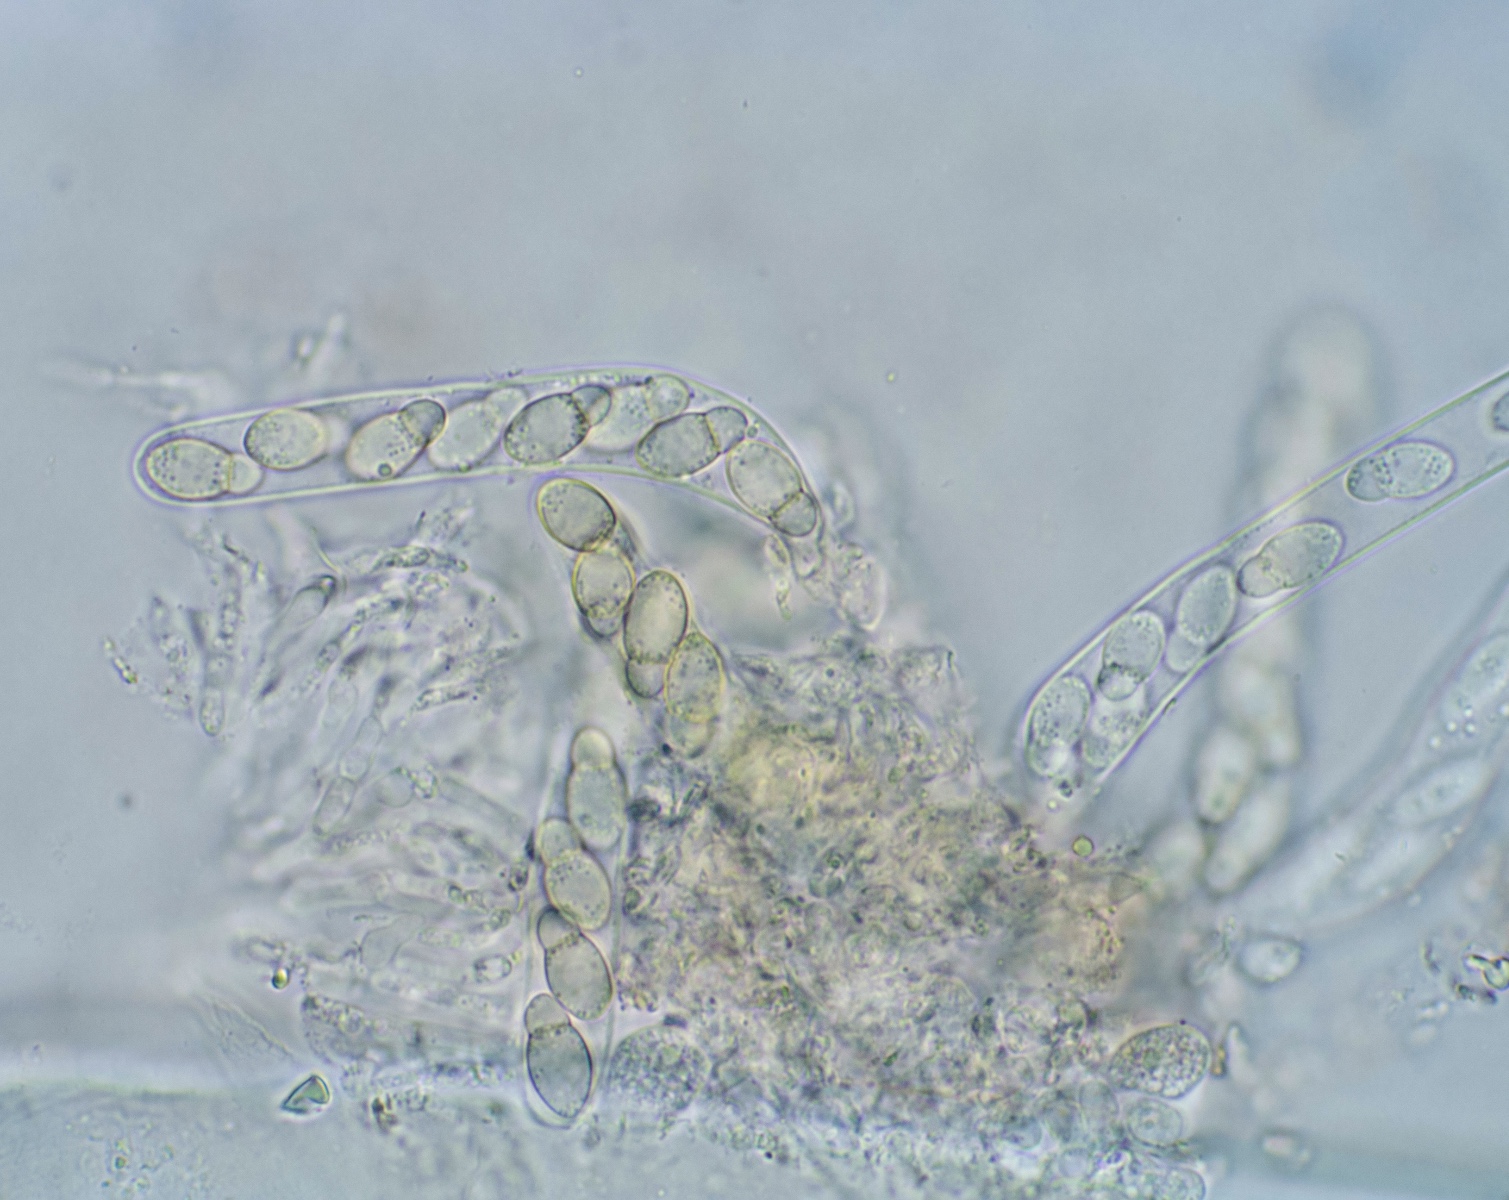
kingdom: Fungi
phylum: Ascomycota
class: Dothideomycetes
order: Venturiales
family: Venturiaceae
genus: Coleroa
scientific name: Coleroa robertiani
